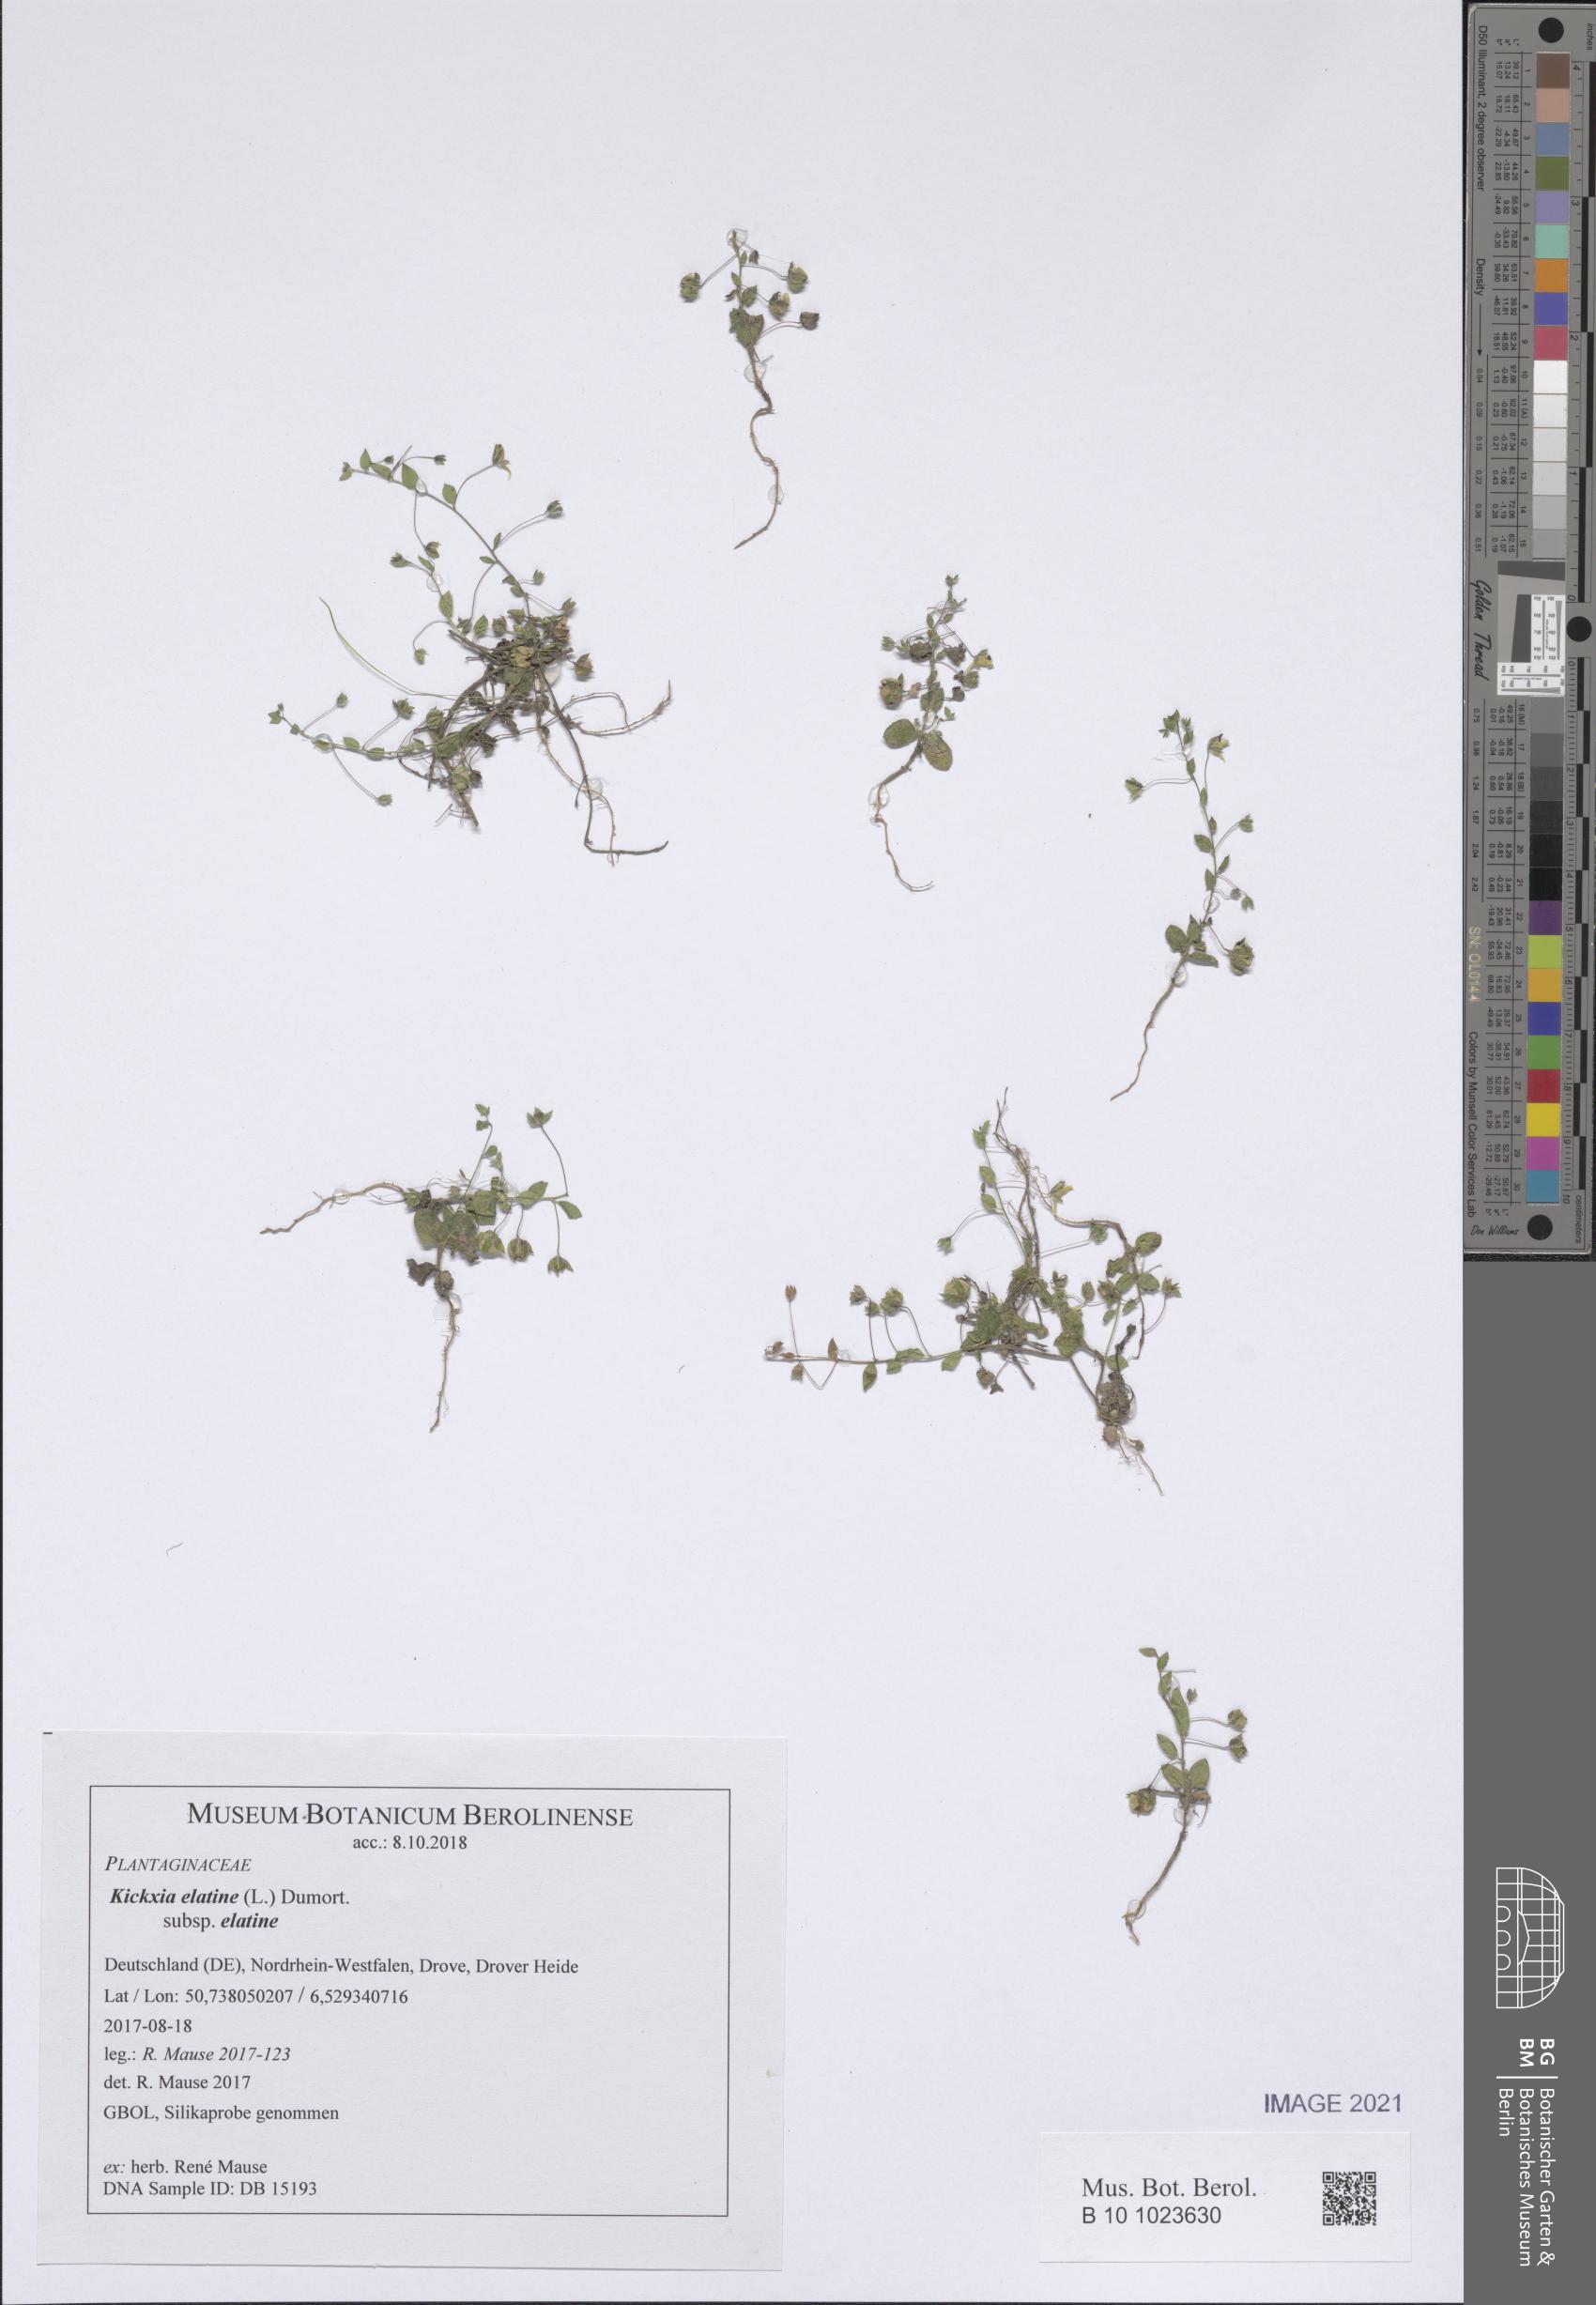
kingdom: Plantae
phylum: Tracheophyta
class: Magnoliopsida
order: Lamiales
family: Plantaginaceae
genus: Kickxia
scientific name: Kickxia elatine
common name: Sharp-leaved fluellen
